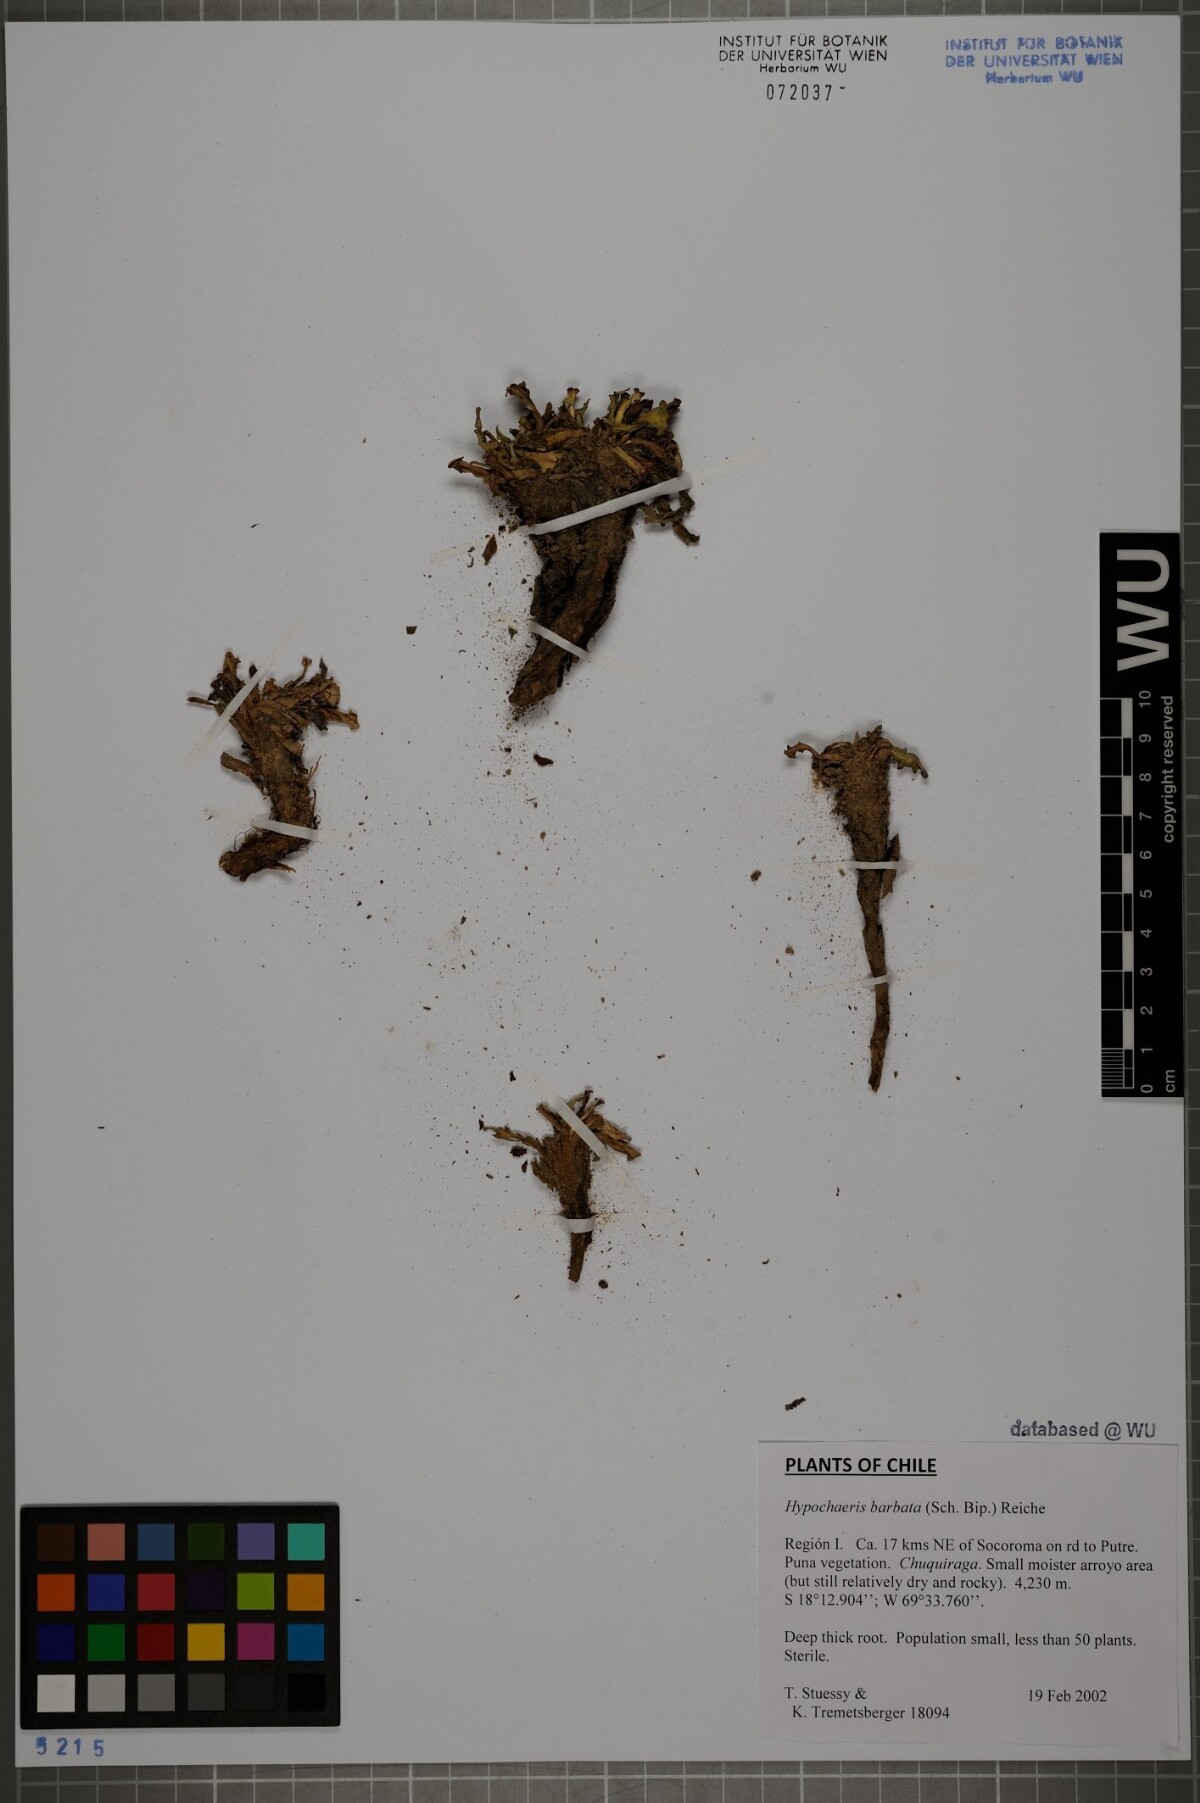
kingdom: Plantae
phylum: Tracheophyta
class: Magnoliopsida
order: Asterales
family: Asteraceae
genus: Hypochaeris
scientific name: Hypochaeris sessiliflora
